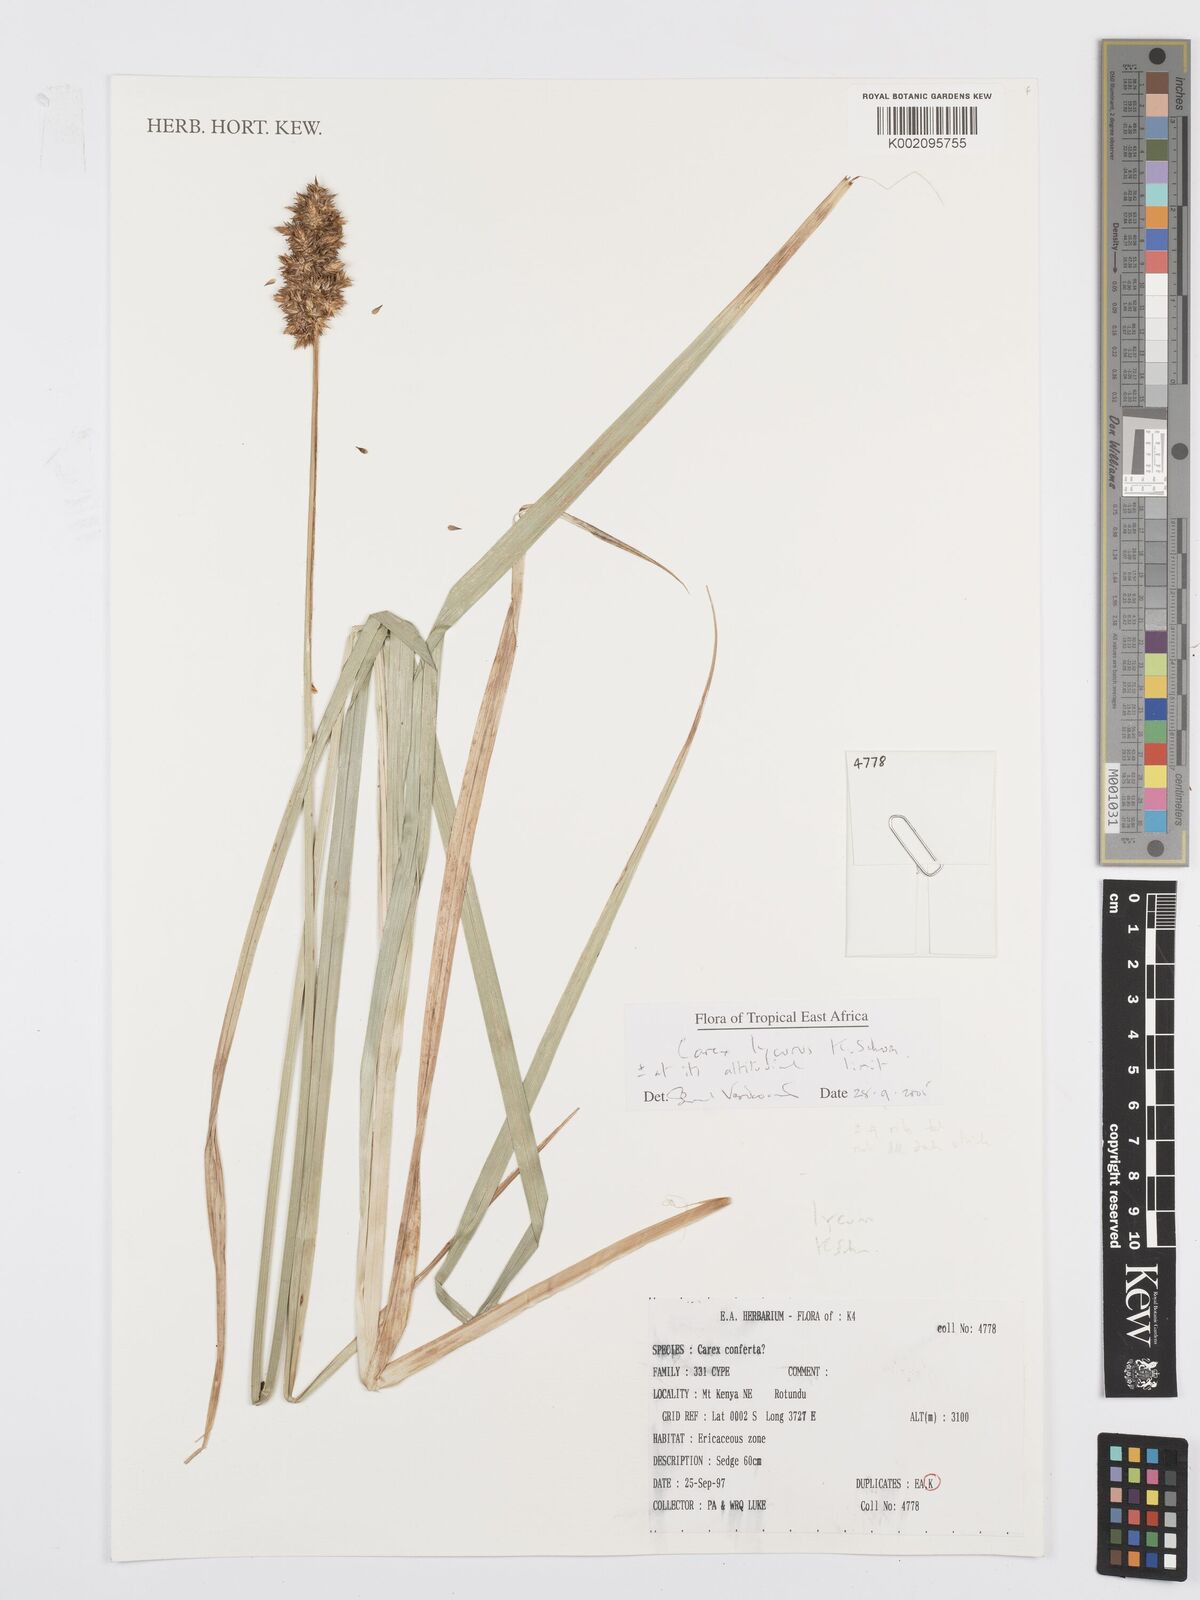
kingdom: Plantae
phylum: Tracheophyta
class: Liliopsida
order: Poales
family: Cyperaceae
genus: Carex
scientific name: Carex lycurus
